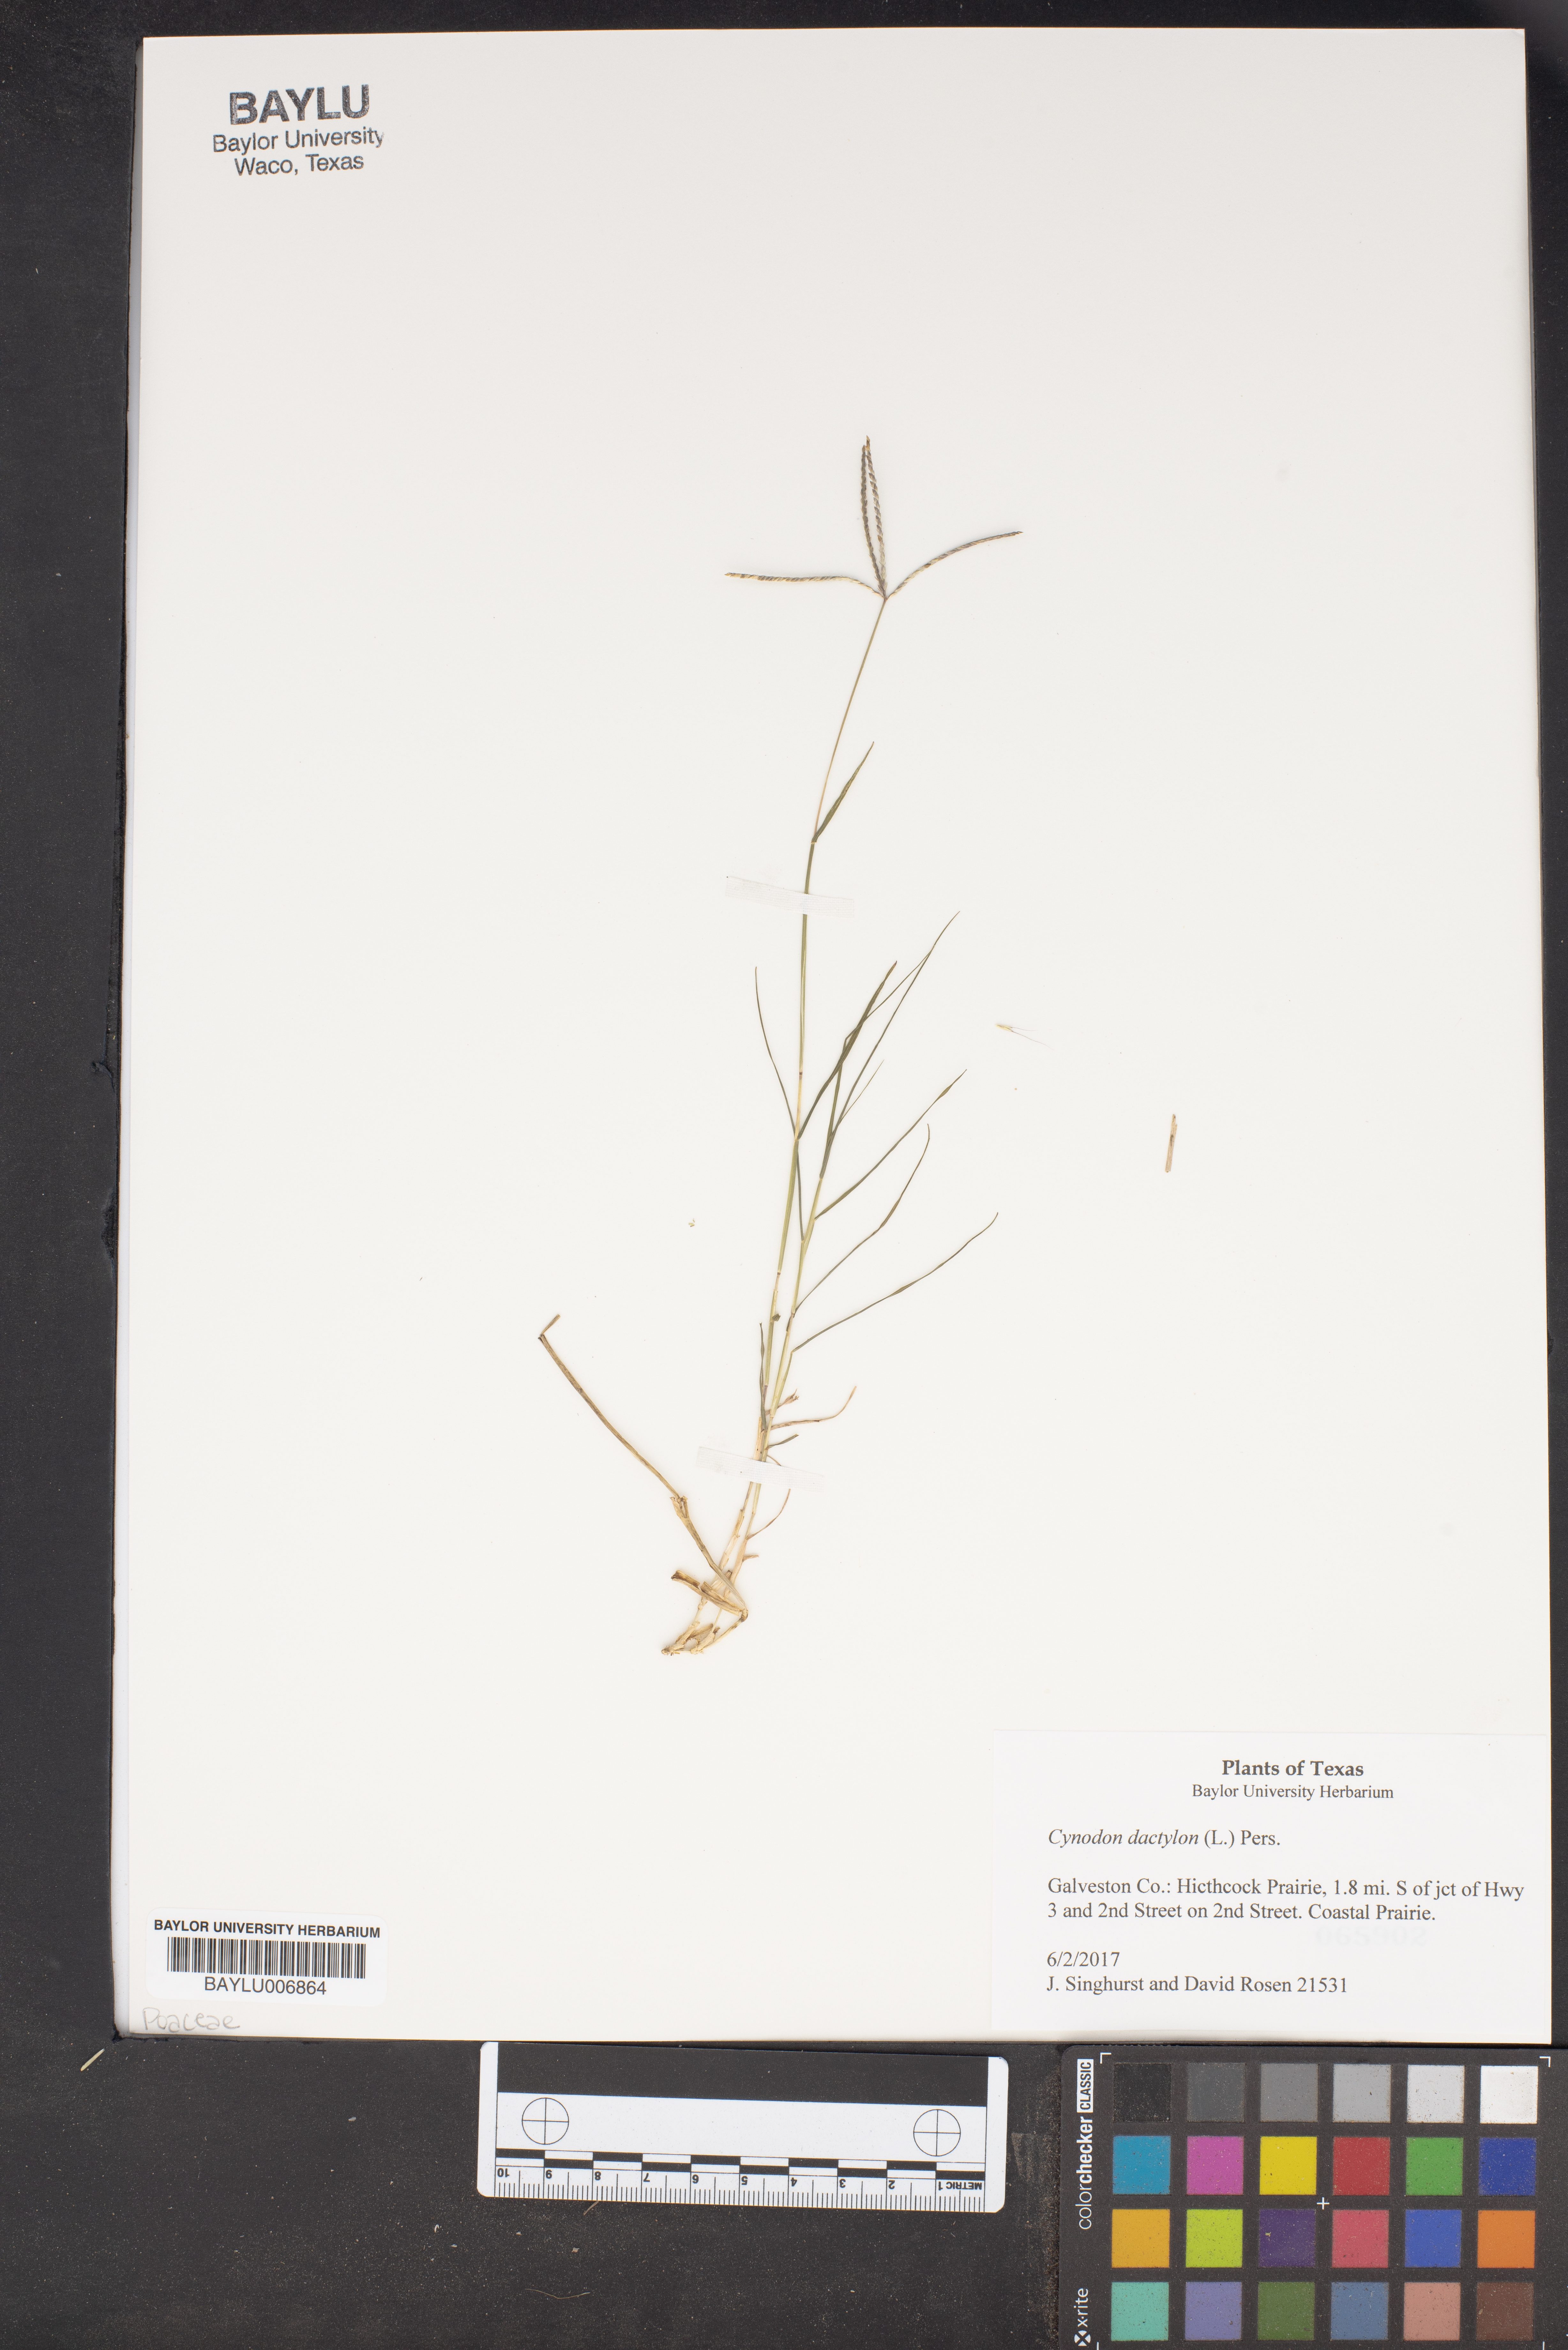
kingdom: Plantae
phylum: Tracheophyta
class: Liliopsida
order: Poales
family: Poaceae
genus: Cynodon
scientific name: Cynodon dactylon
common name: Bermuda grass
